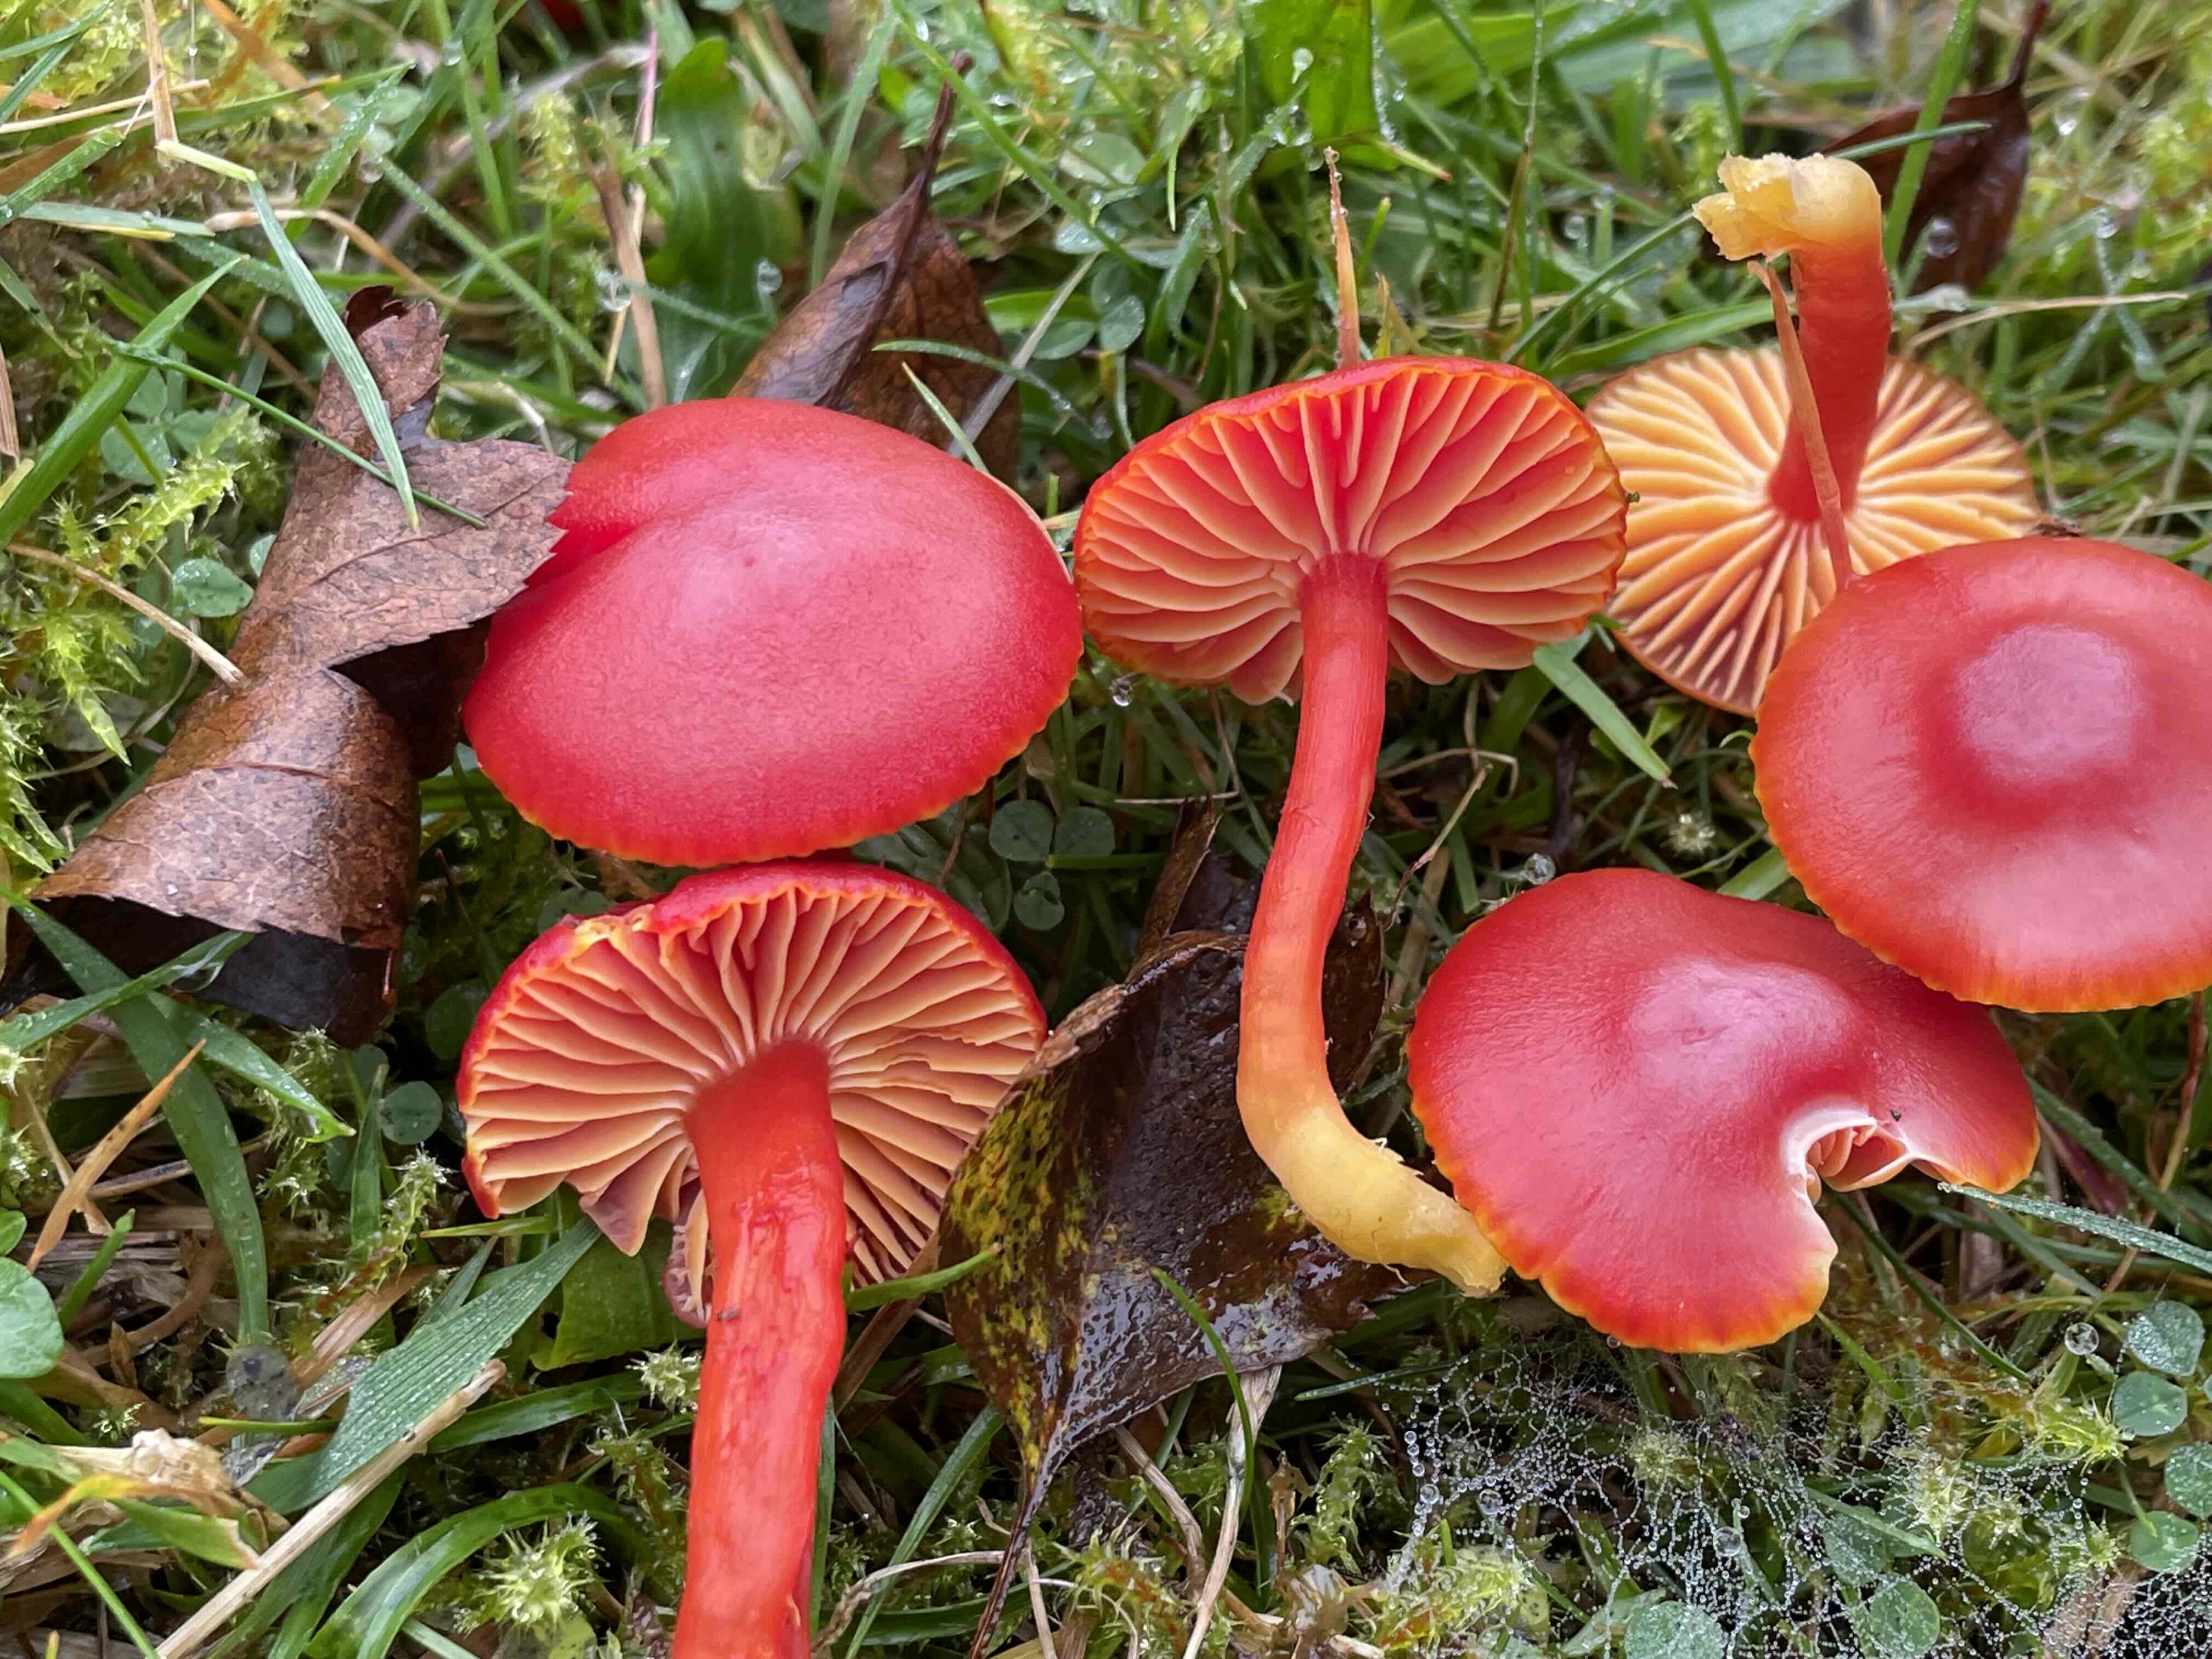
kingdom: Fungi
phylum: Basidiomycota
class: Agaricomycetes
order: Agaricales
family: Hygrophoraceae
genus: Hygrocybe
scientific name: Hygrocybe coccinea
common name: cinnober-vokshat
